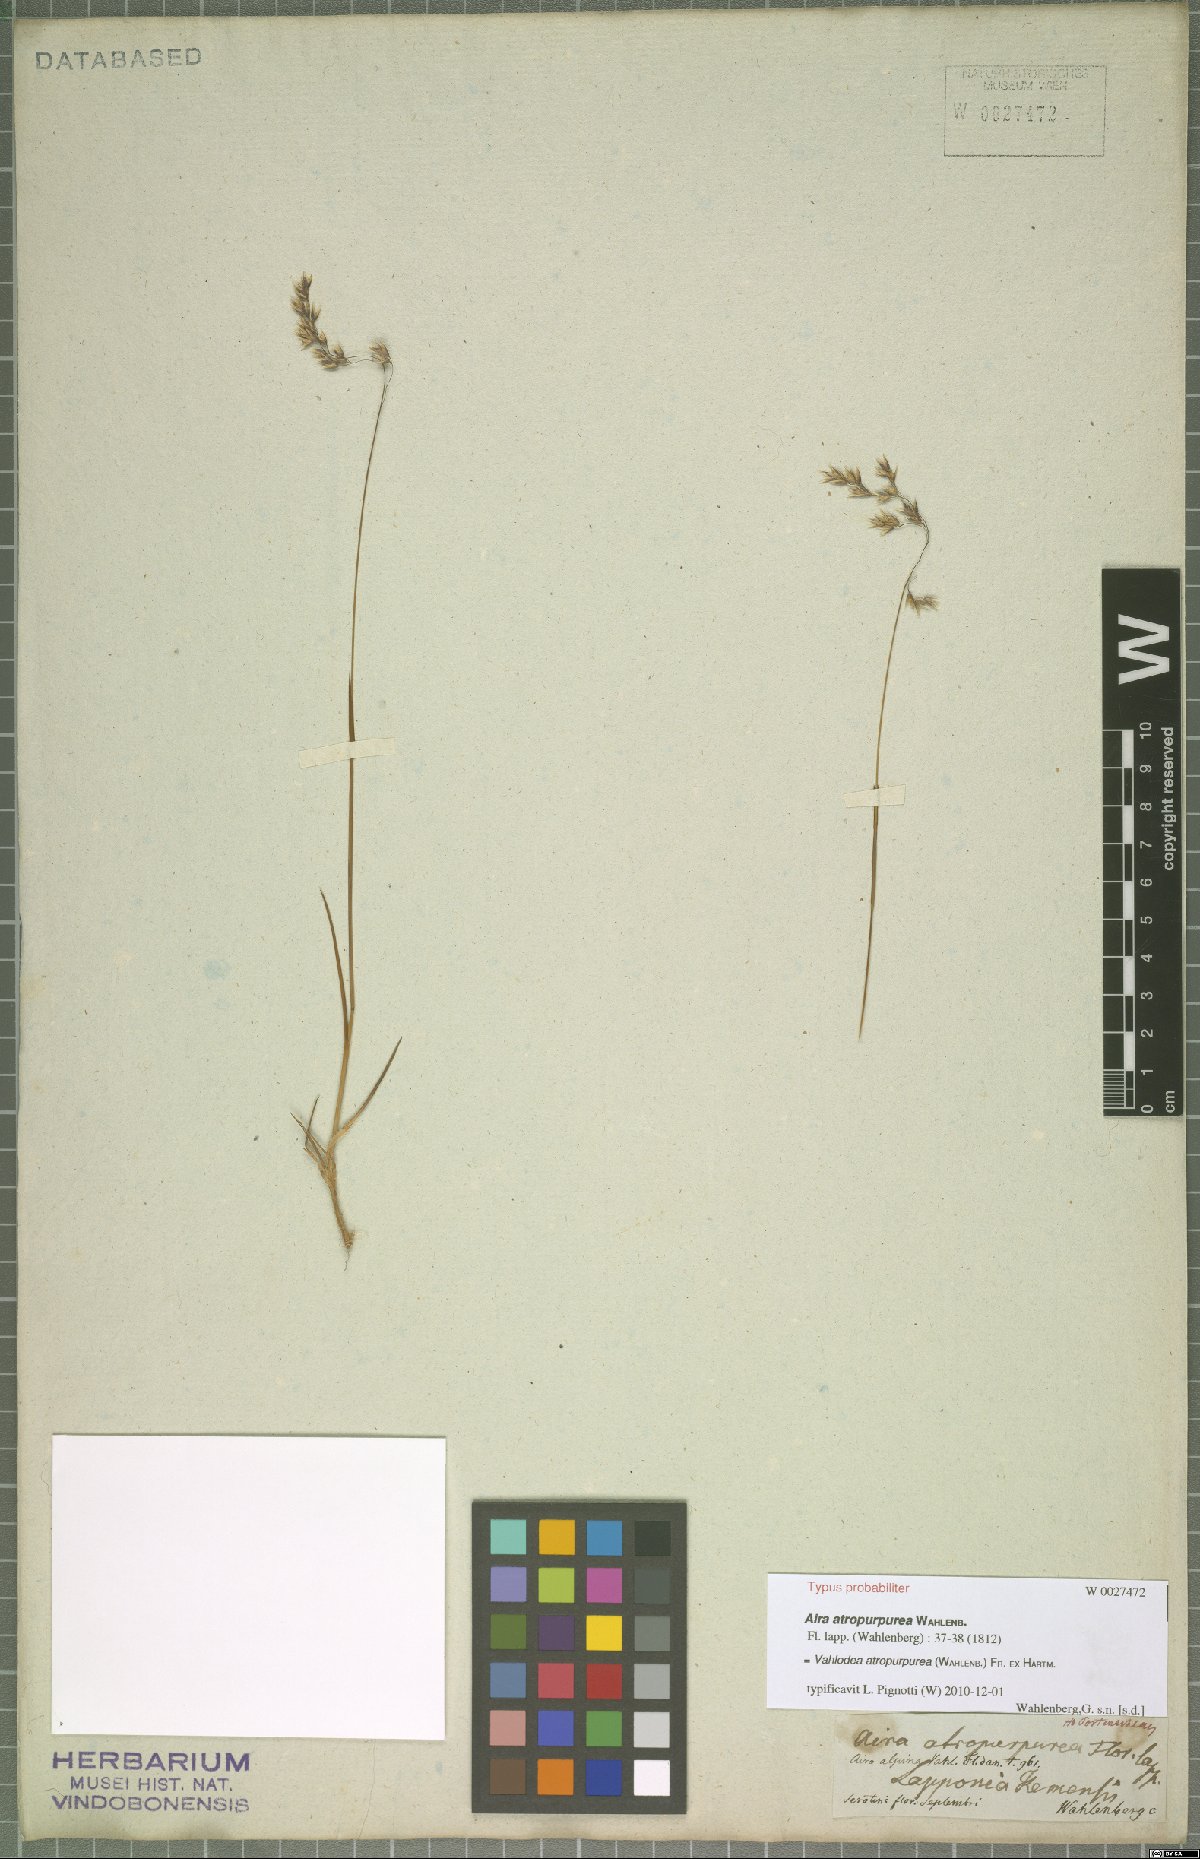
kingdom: Plantae
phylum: Tracheophyta
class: Liliopsida
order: Poales
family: Poaceae
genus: Vahlodea
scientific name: Vahlodea atropurpurea
